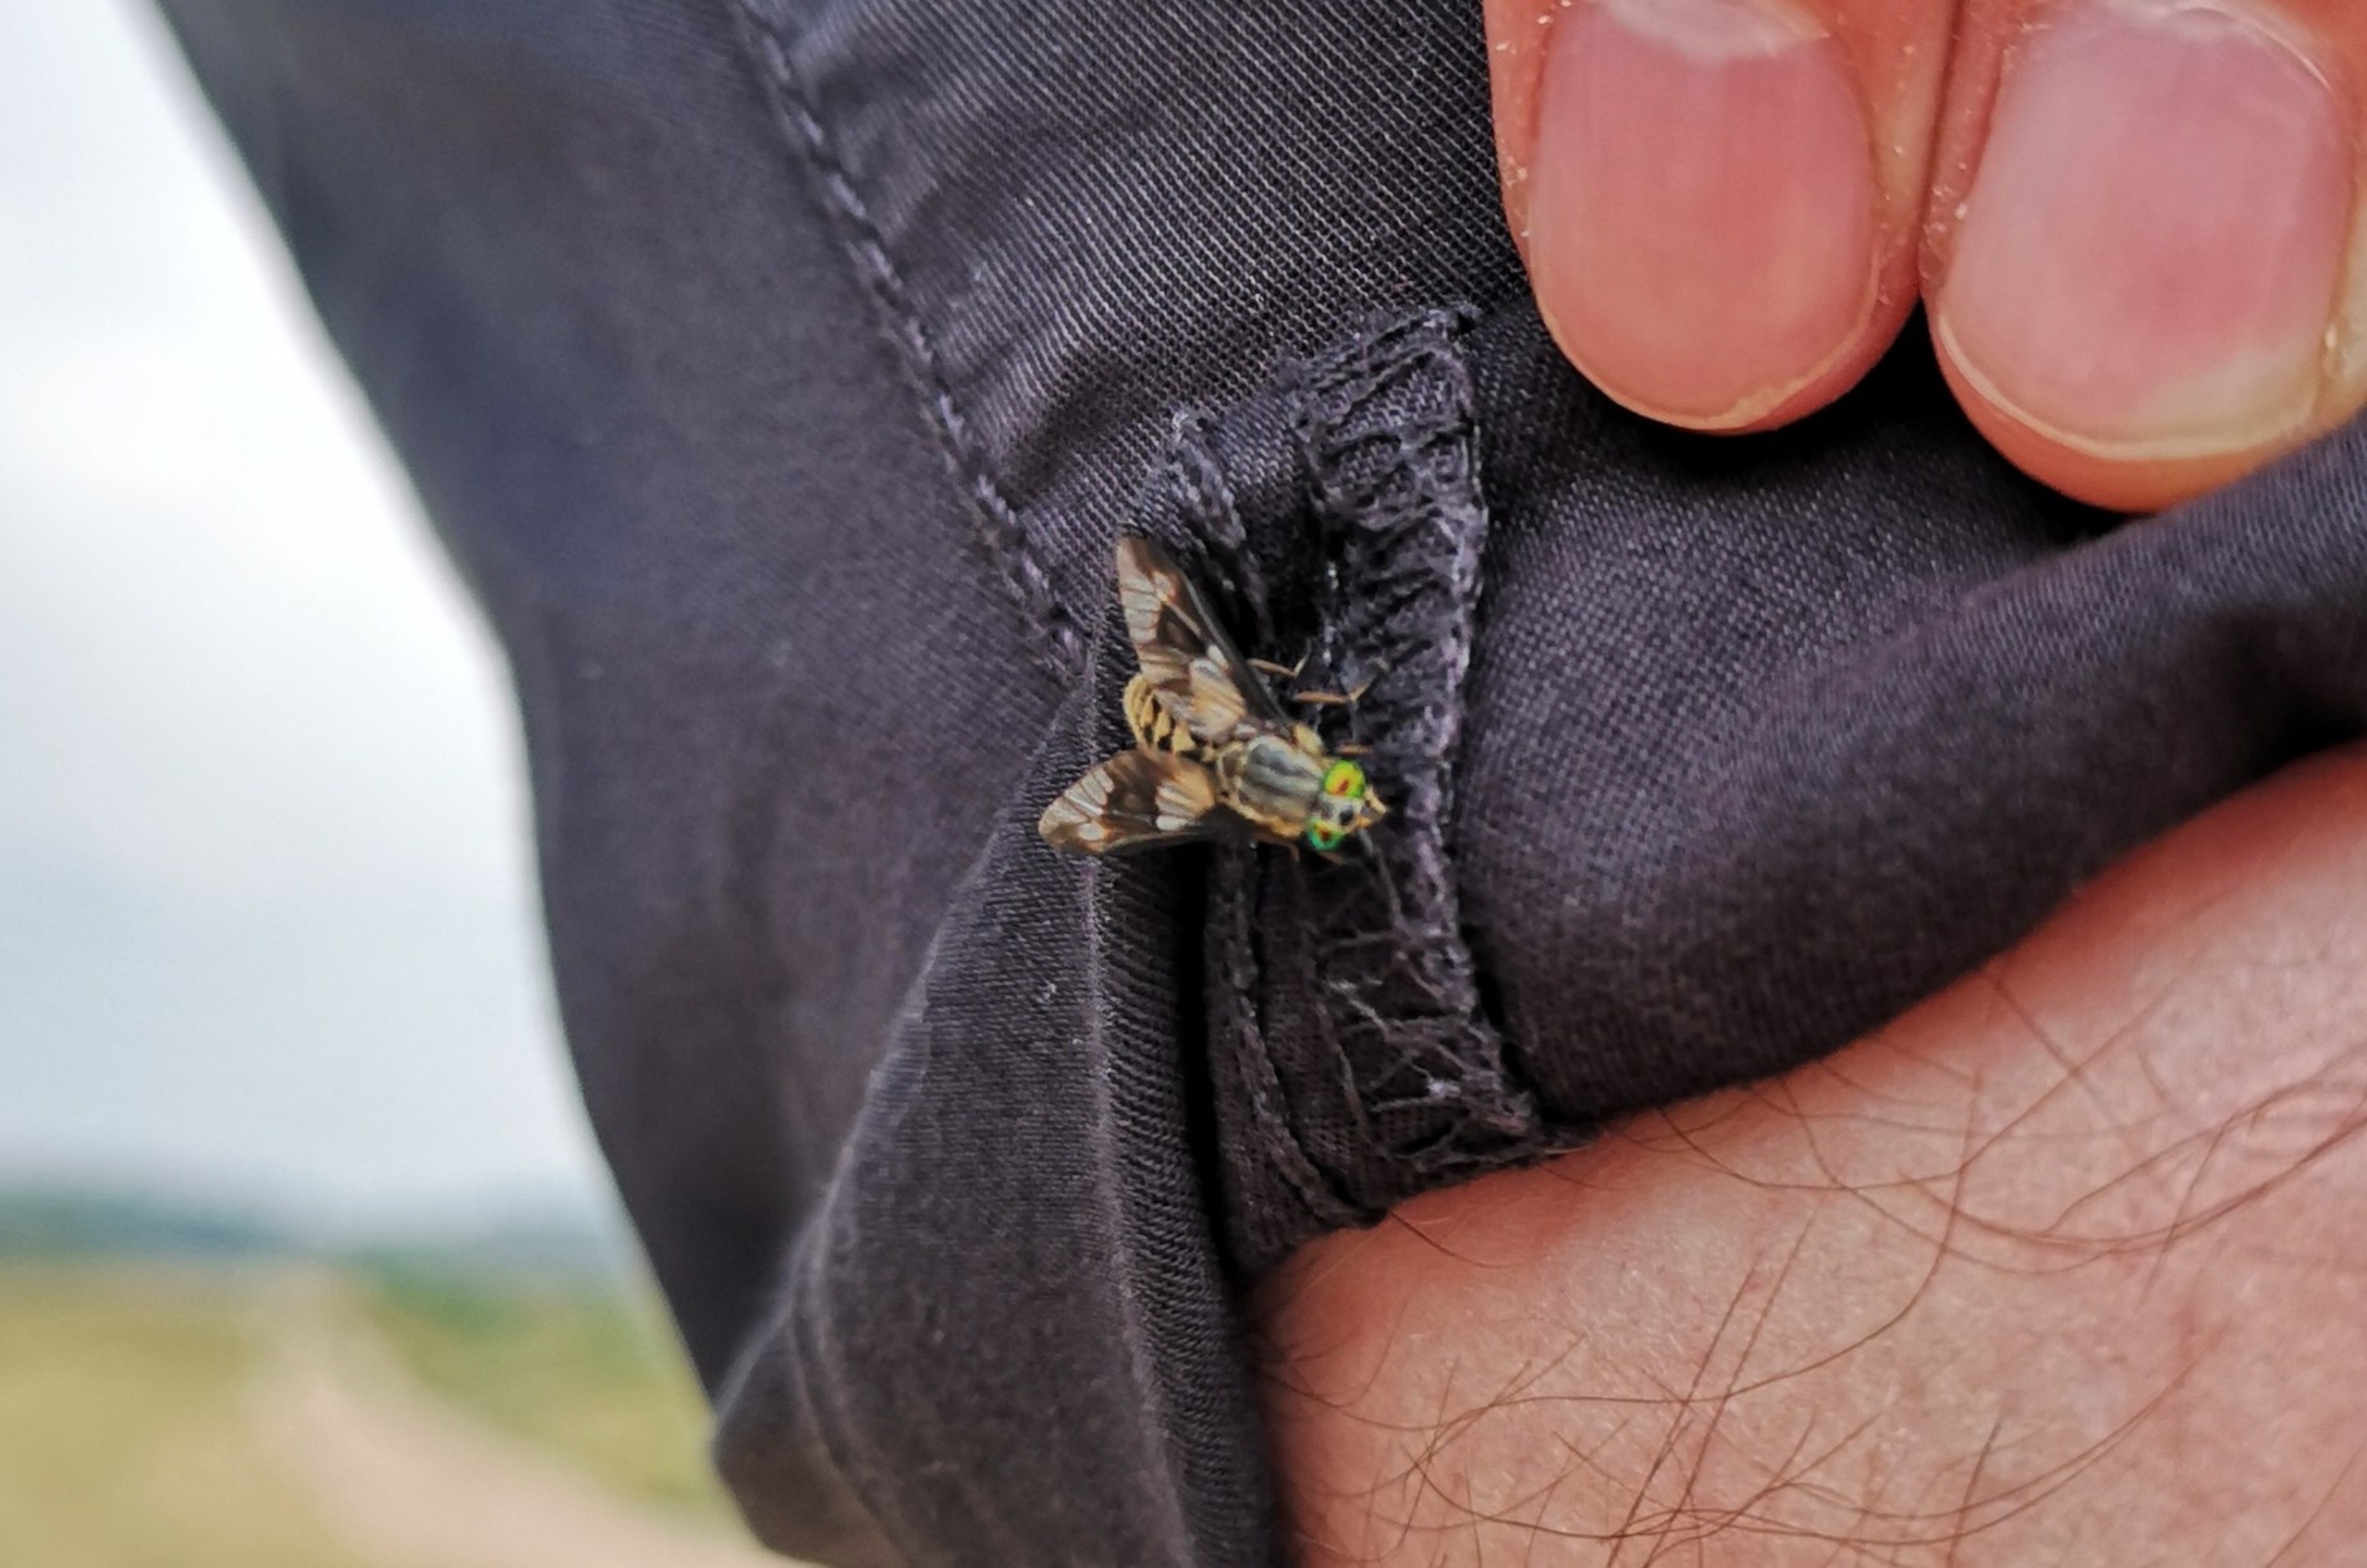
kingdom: Animalia
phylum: Arthropoda
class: Insecta
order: Diptera
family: Tabanidae
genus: Chrysops
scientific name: Chrysops relictus
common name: Guldklæg
